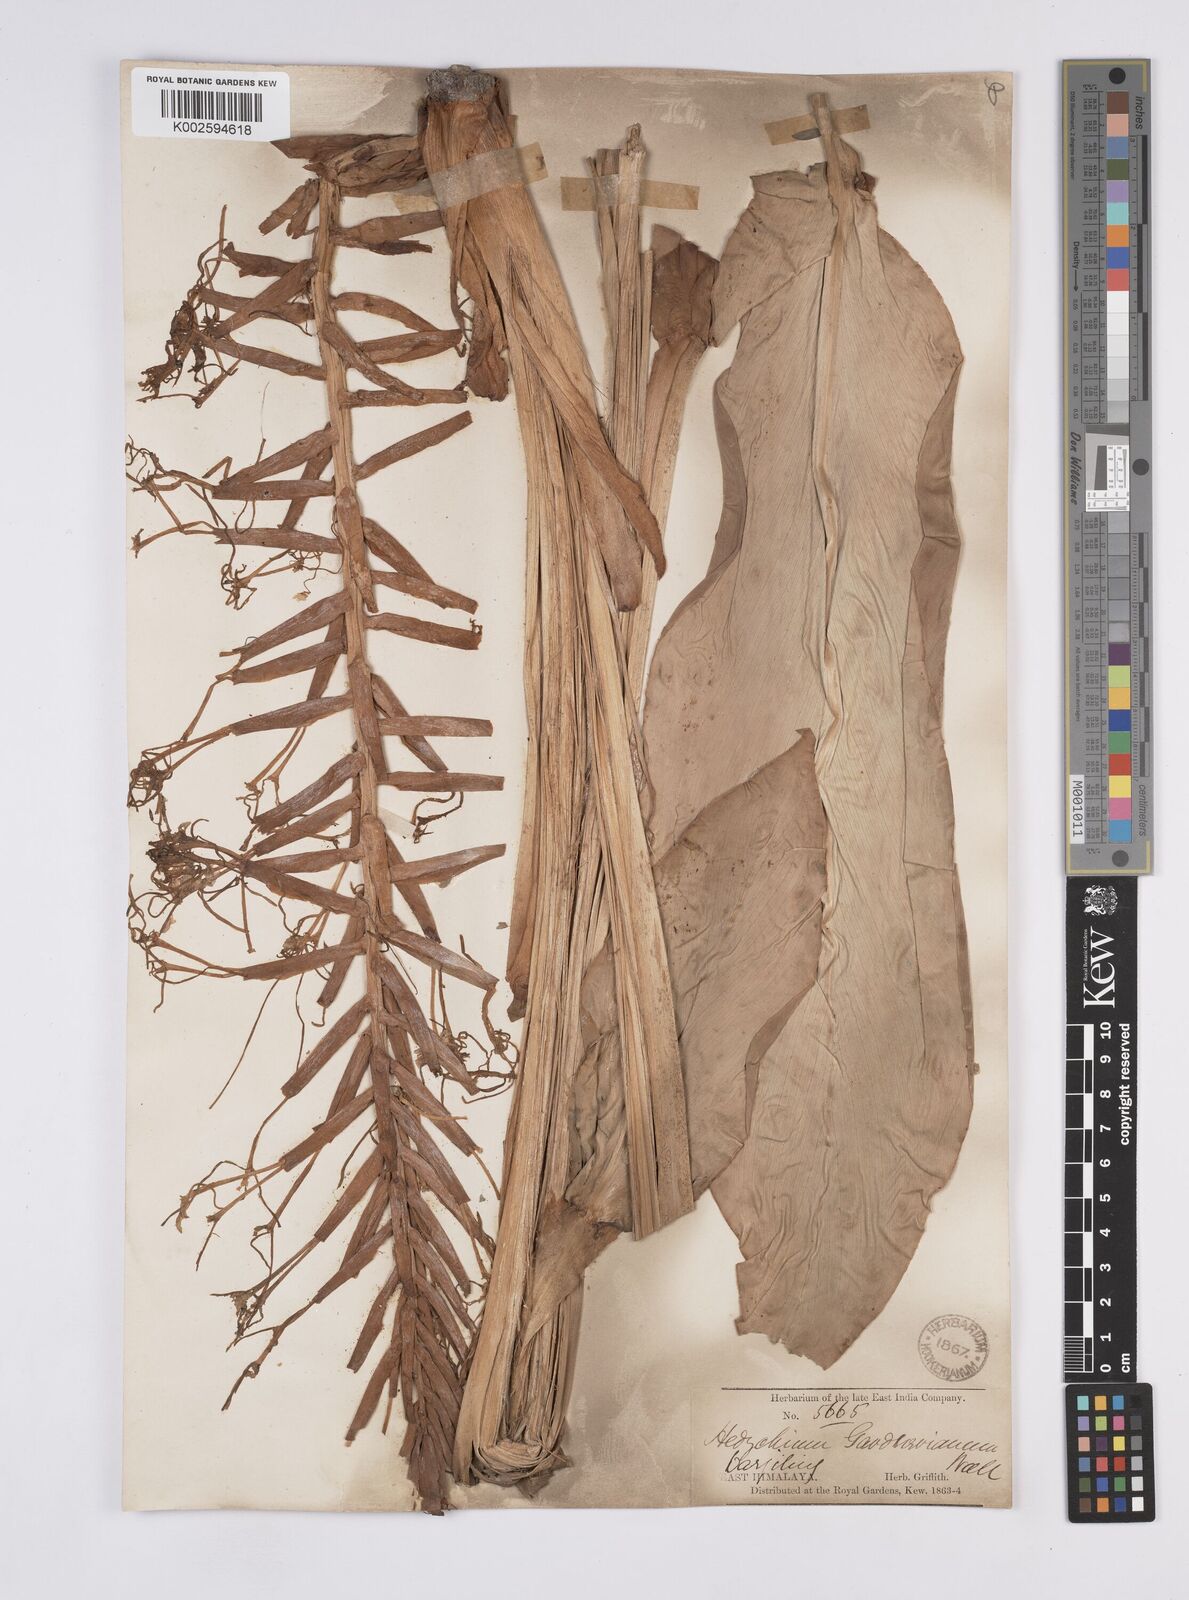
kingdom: Plantae
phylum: Tracheophyta
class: Liliopsida
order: Zingiberales
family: Zingiberaceae
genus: Hedychium
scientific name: Hedychium gardnerianum
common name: Himalayan ginger
